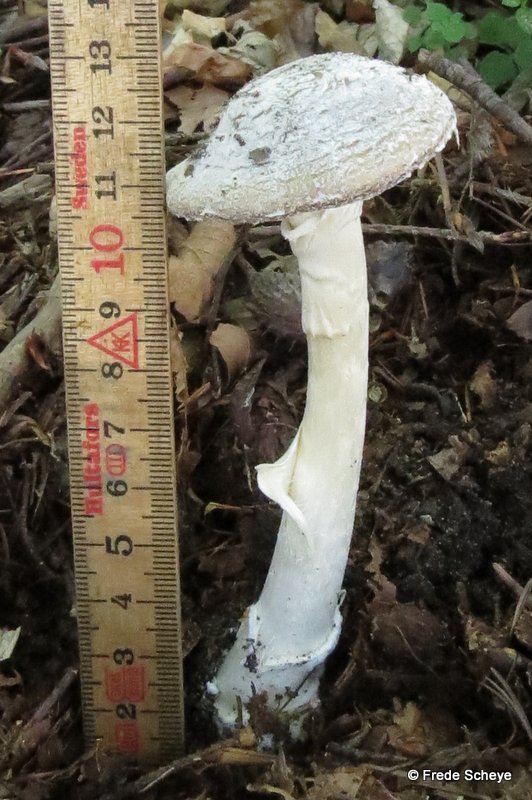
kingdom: Fungi
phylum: Basidiomycota
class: Agaricomycetes
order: Agaricales
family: Amanitaceae
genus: Amanita
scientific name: Amanita
